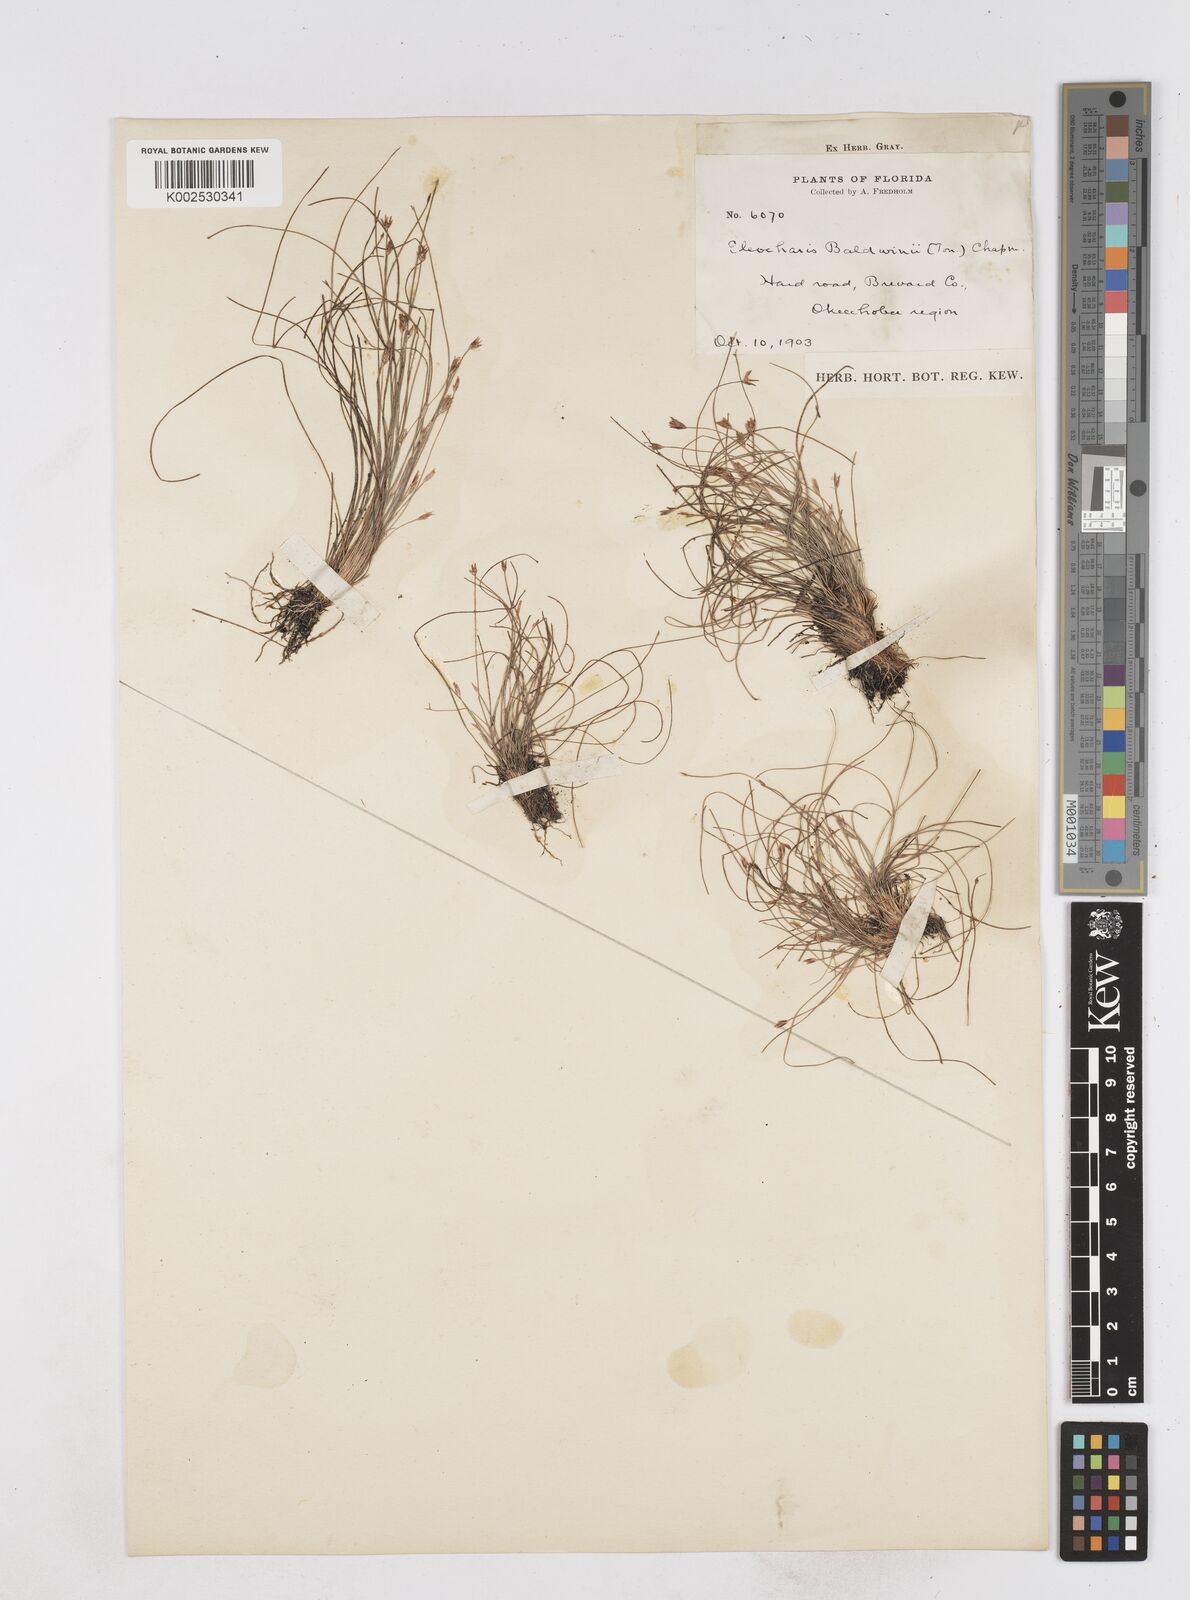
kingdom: Plantae
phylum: Tracheophyta
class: Liliopsida
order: Poales
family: Cyperaceae
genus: Eleocharis
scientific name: Eleocharis baldwinii
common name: Baldwin's spike-rush
